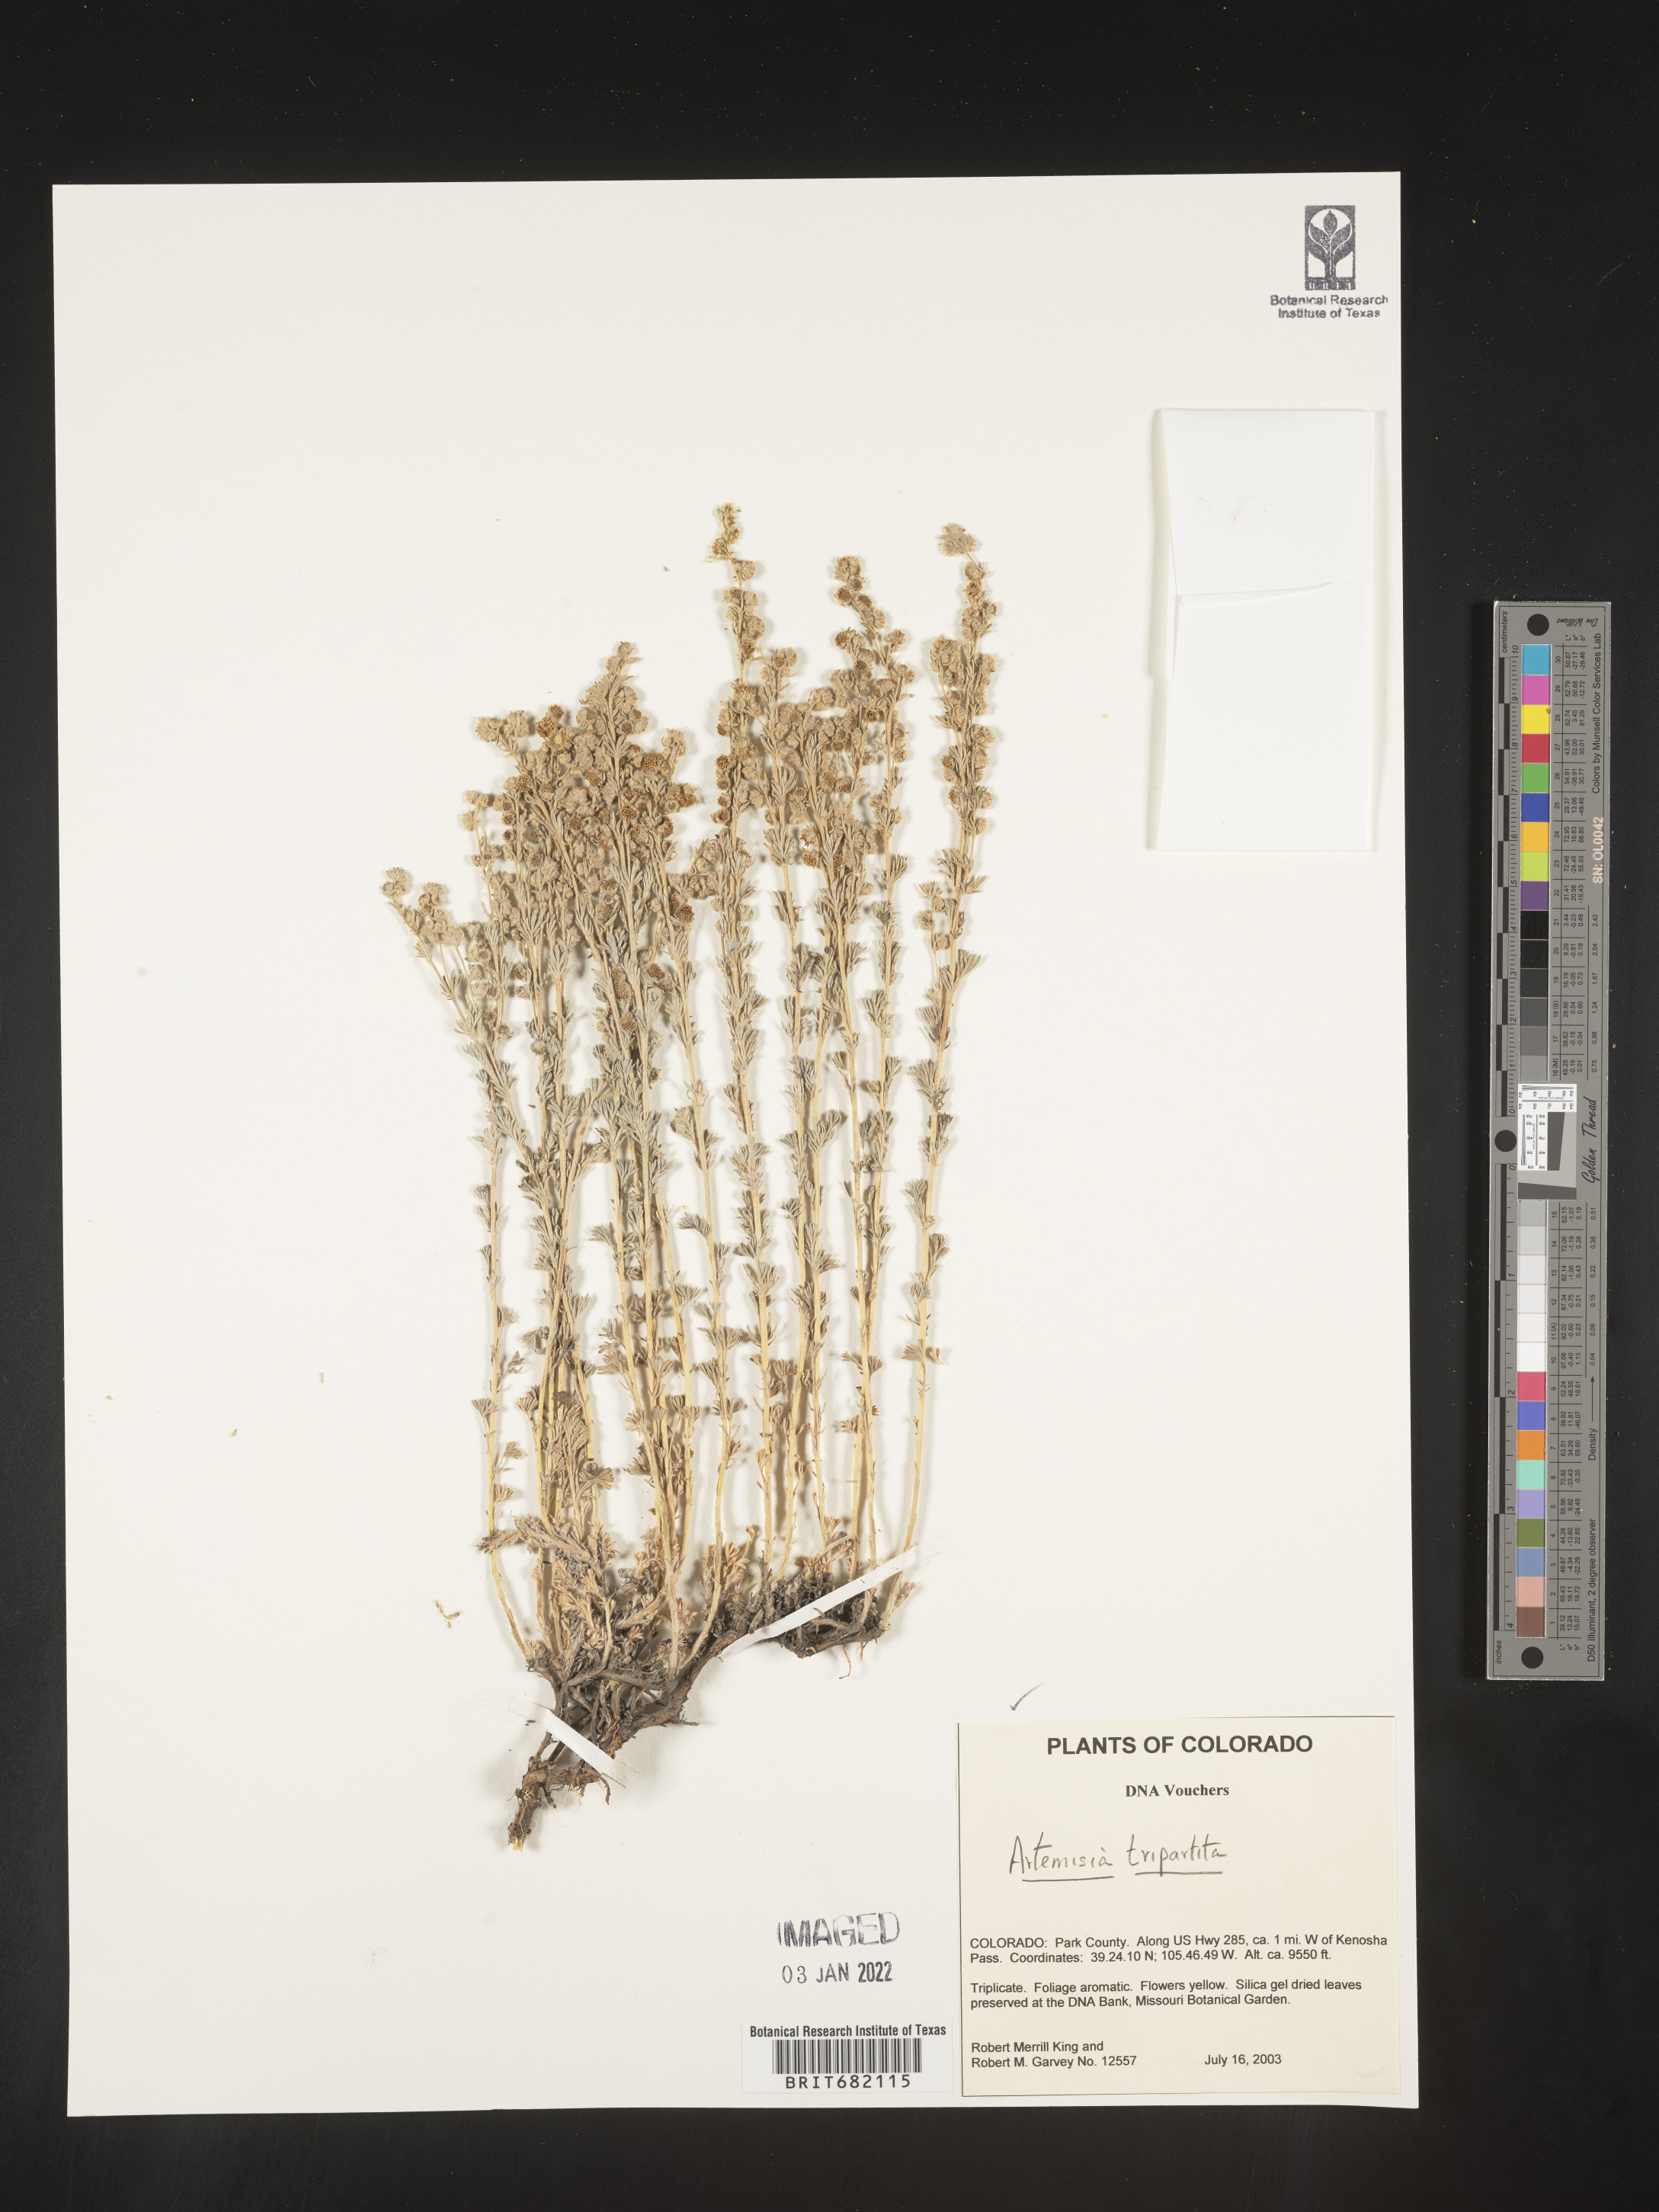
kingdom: Plantae
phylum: Tracheophyta
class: Magnoliopsida
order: Asterales
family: Asteraceae
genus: Artemisia
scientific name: Artemisia tripartita
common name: Three-tip sagebrush
